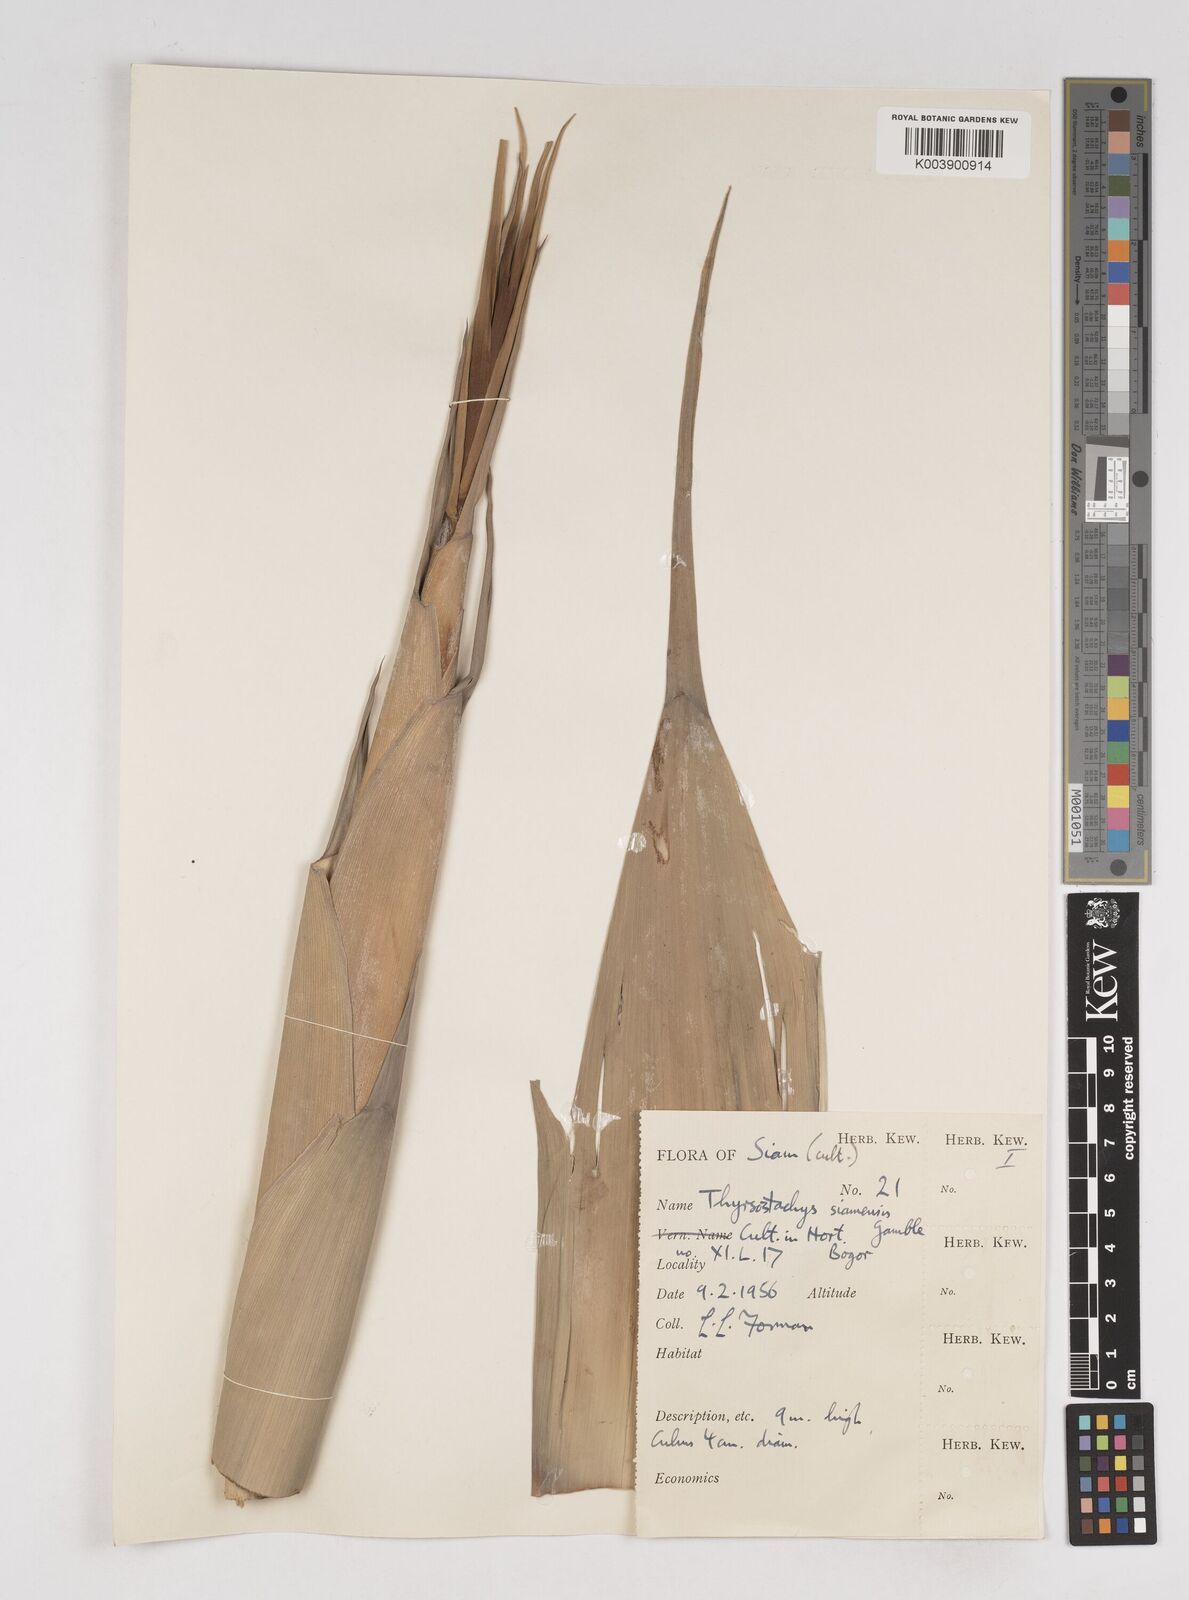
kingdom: Plantae
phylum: Tracheophyta
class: Liliopsida
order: Poales
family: Poaceae
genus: Thyrsostachys
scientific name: Thyrsostachys siamensis
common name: Thailand bamboo
